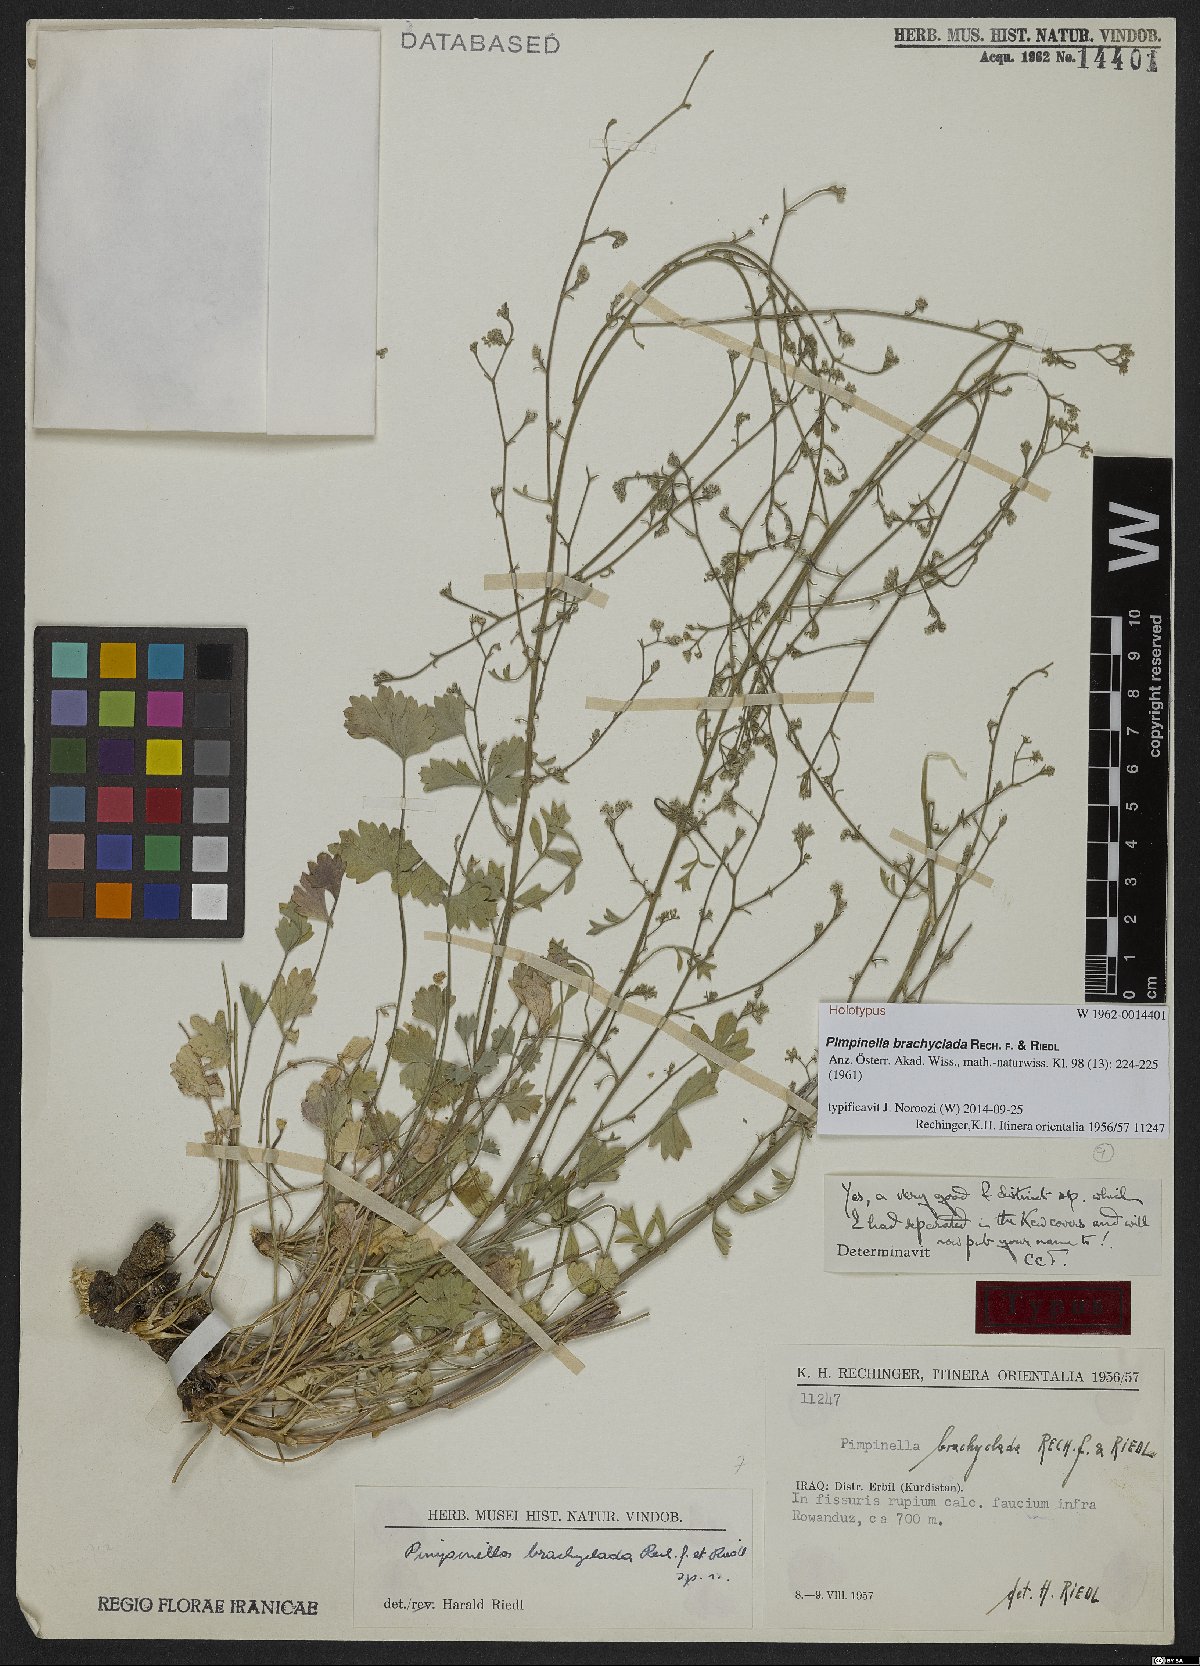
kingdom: Plantae
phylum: Tracheophyta
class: Magnoliopsida
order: Apiales
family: Apiaceae
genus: Pimpinella
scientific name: Pimpinella brachyclada
